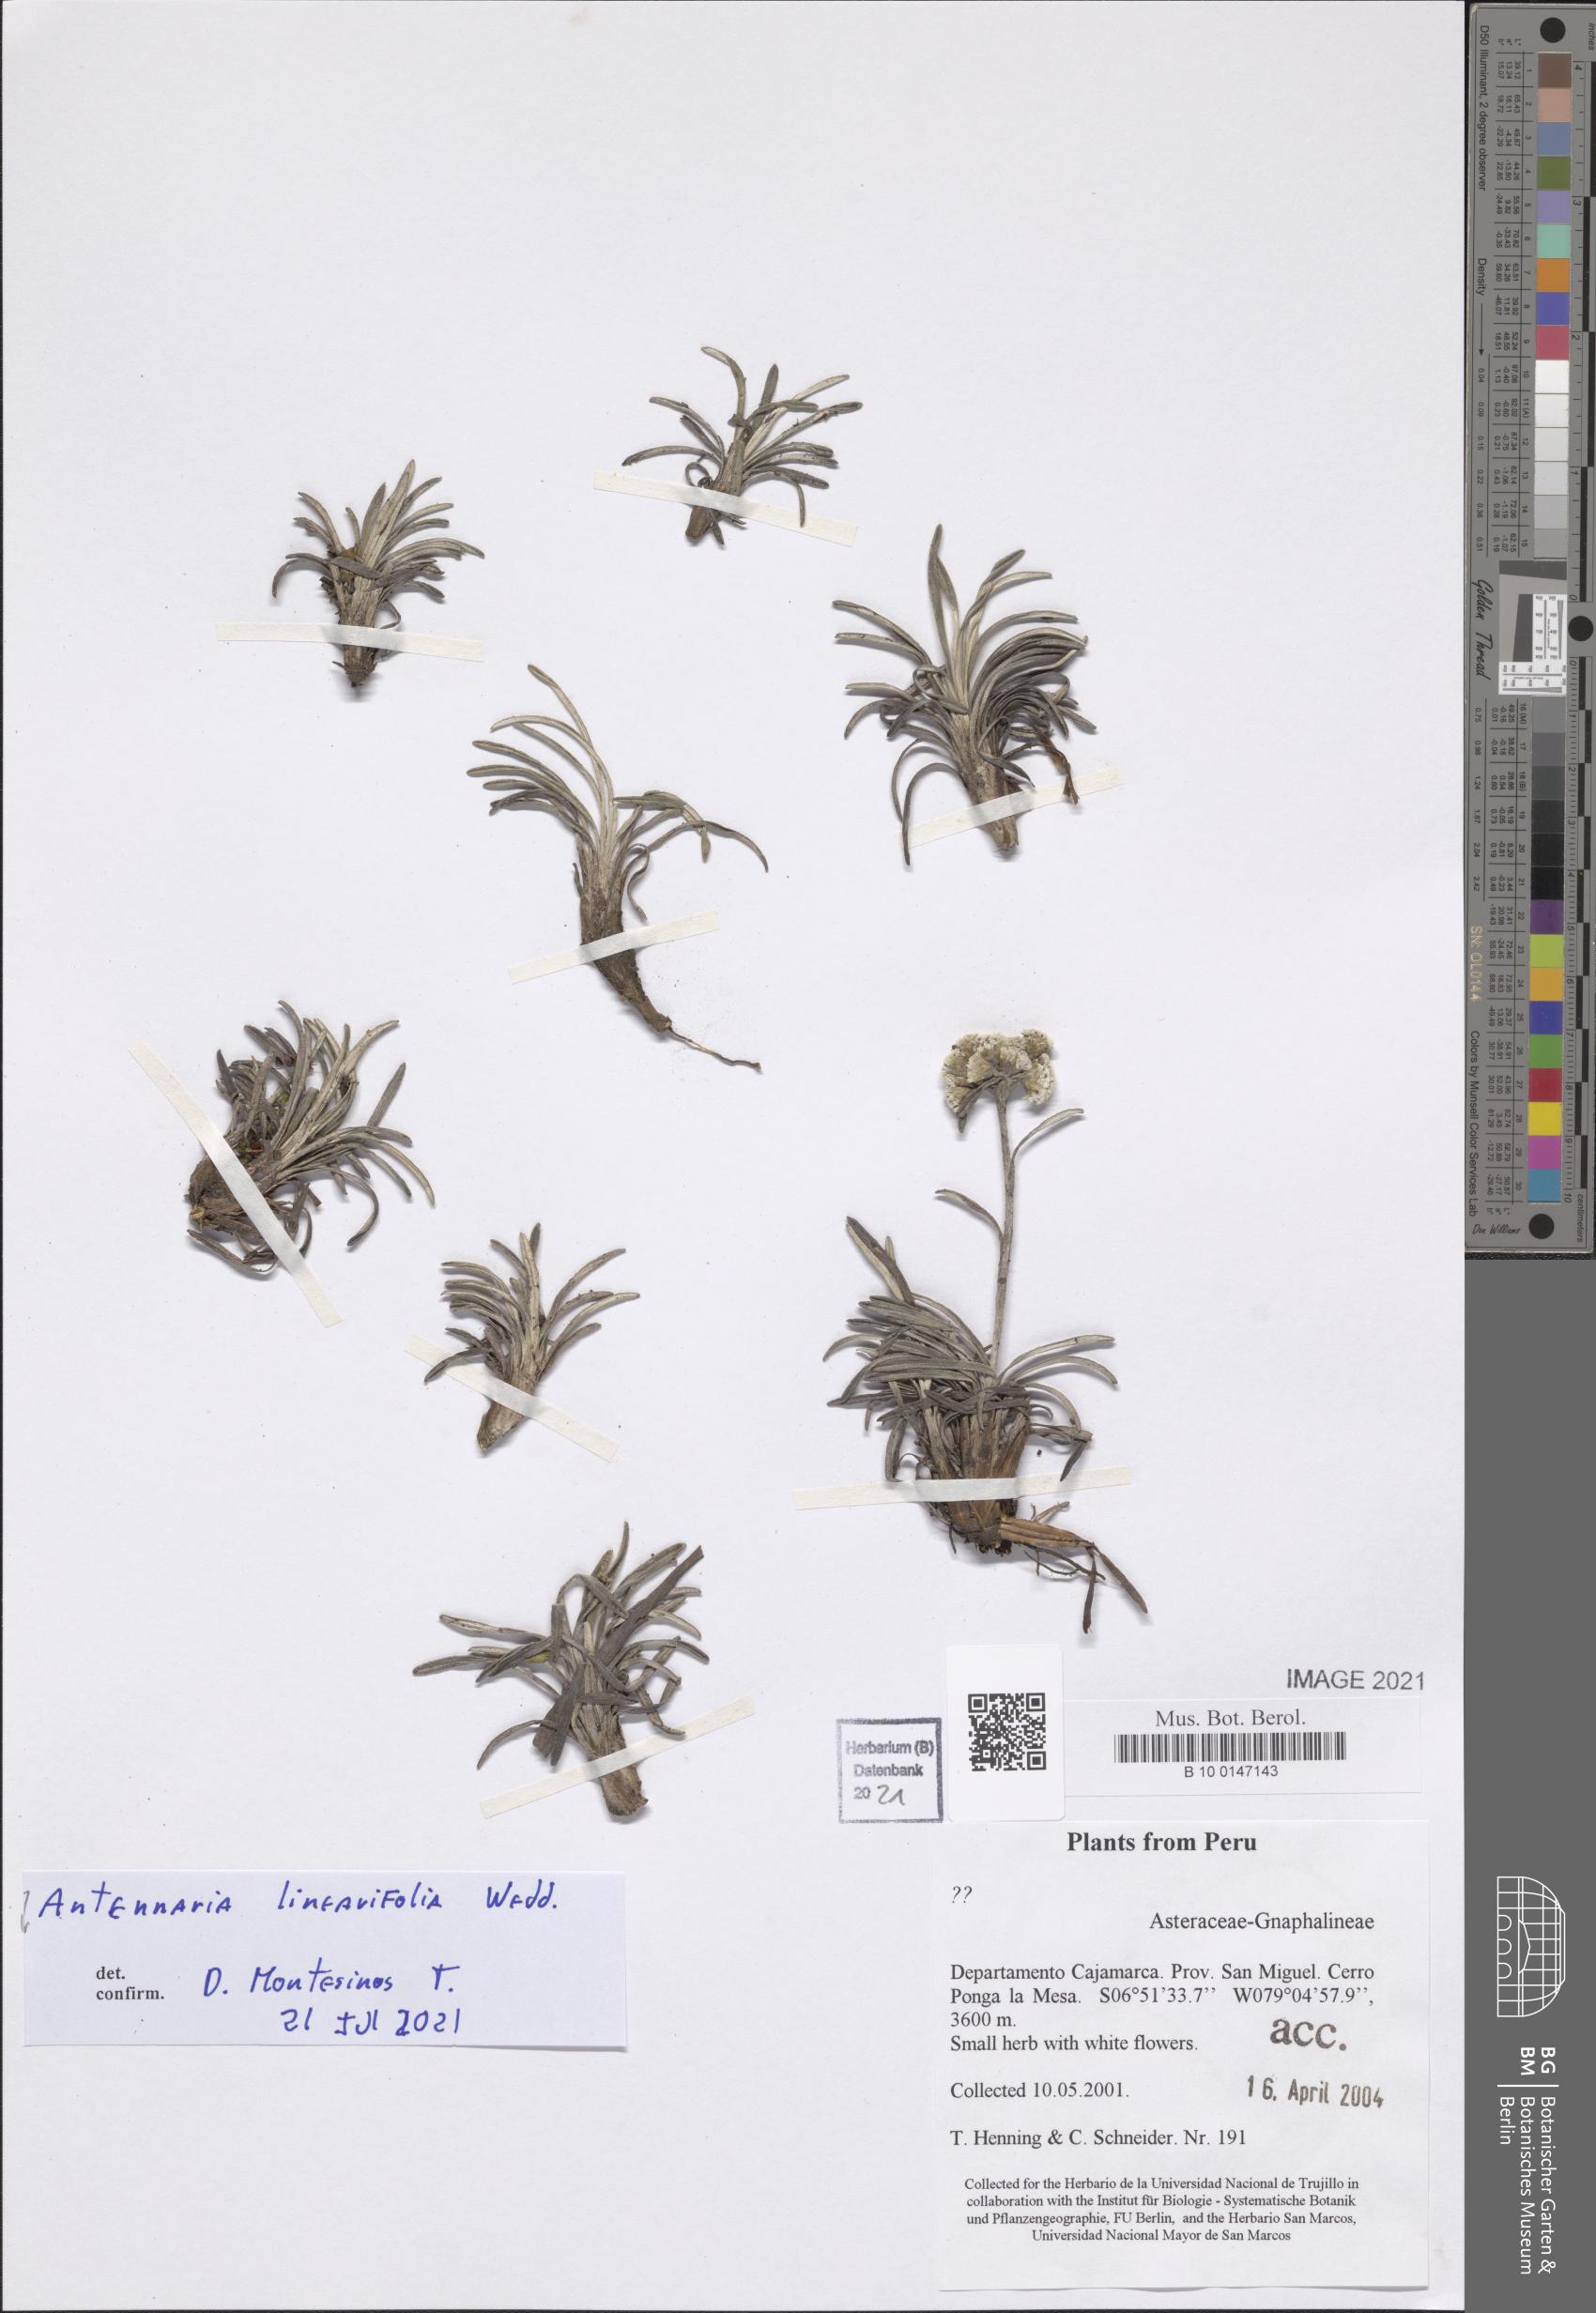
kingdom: Plantae
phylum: Tracheophyta
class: Magnoliopsida
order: Asterales
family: Asteraceae
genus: Quasiantennaria
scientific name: Quasiantennaria linearifolia
